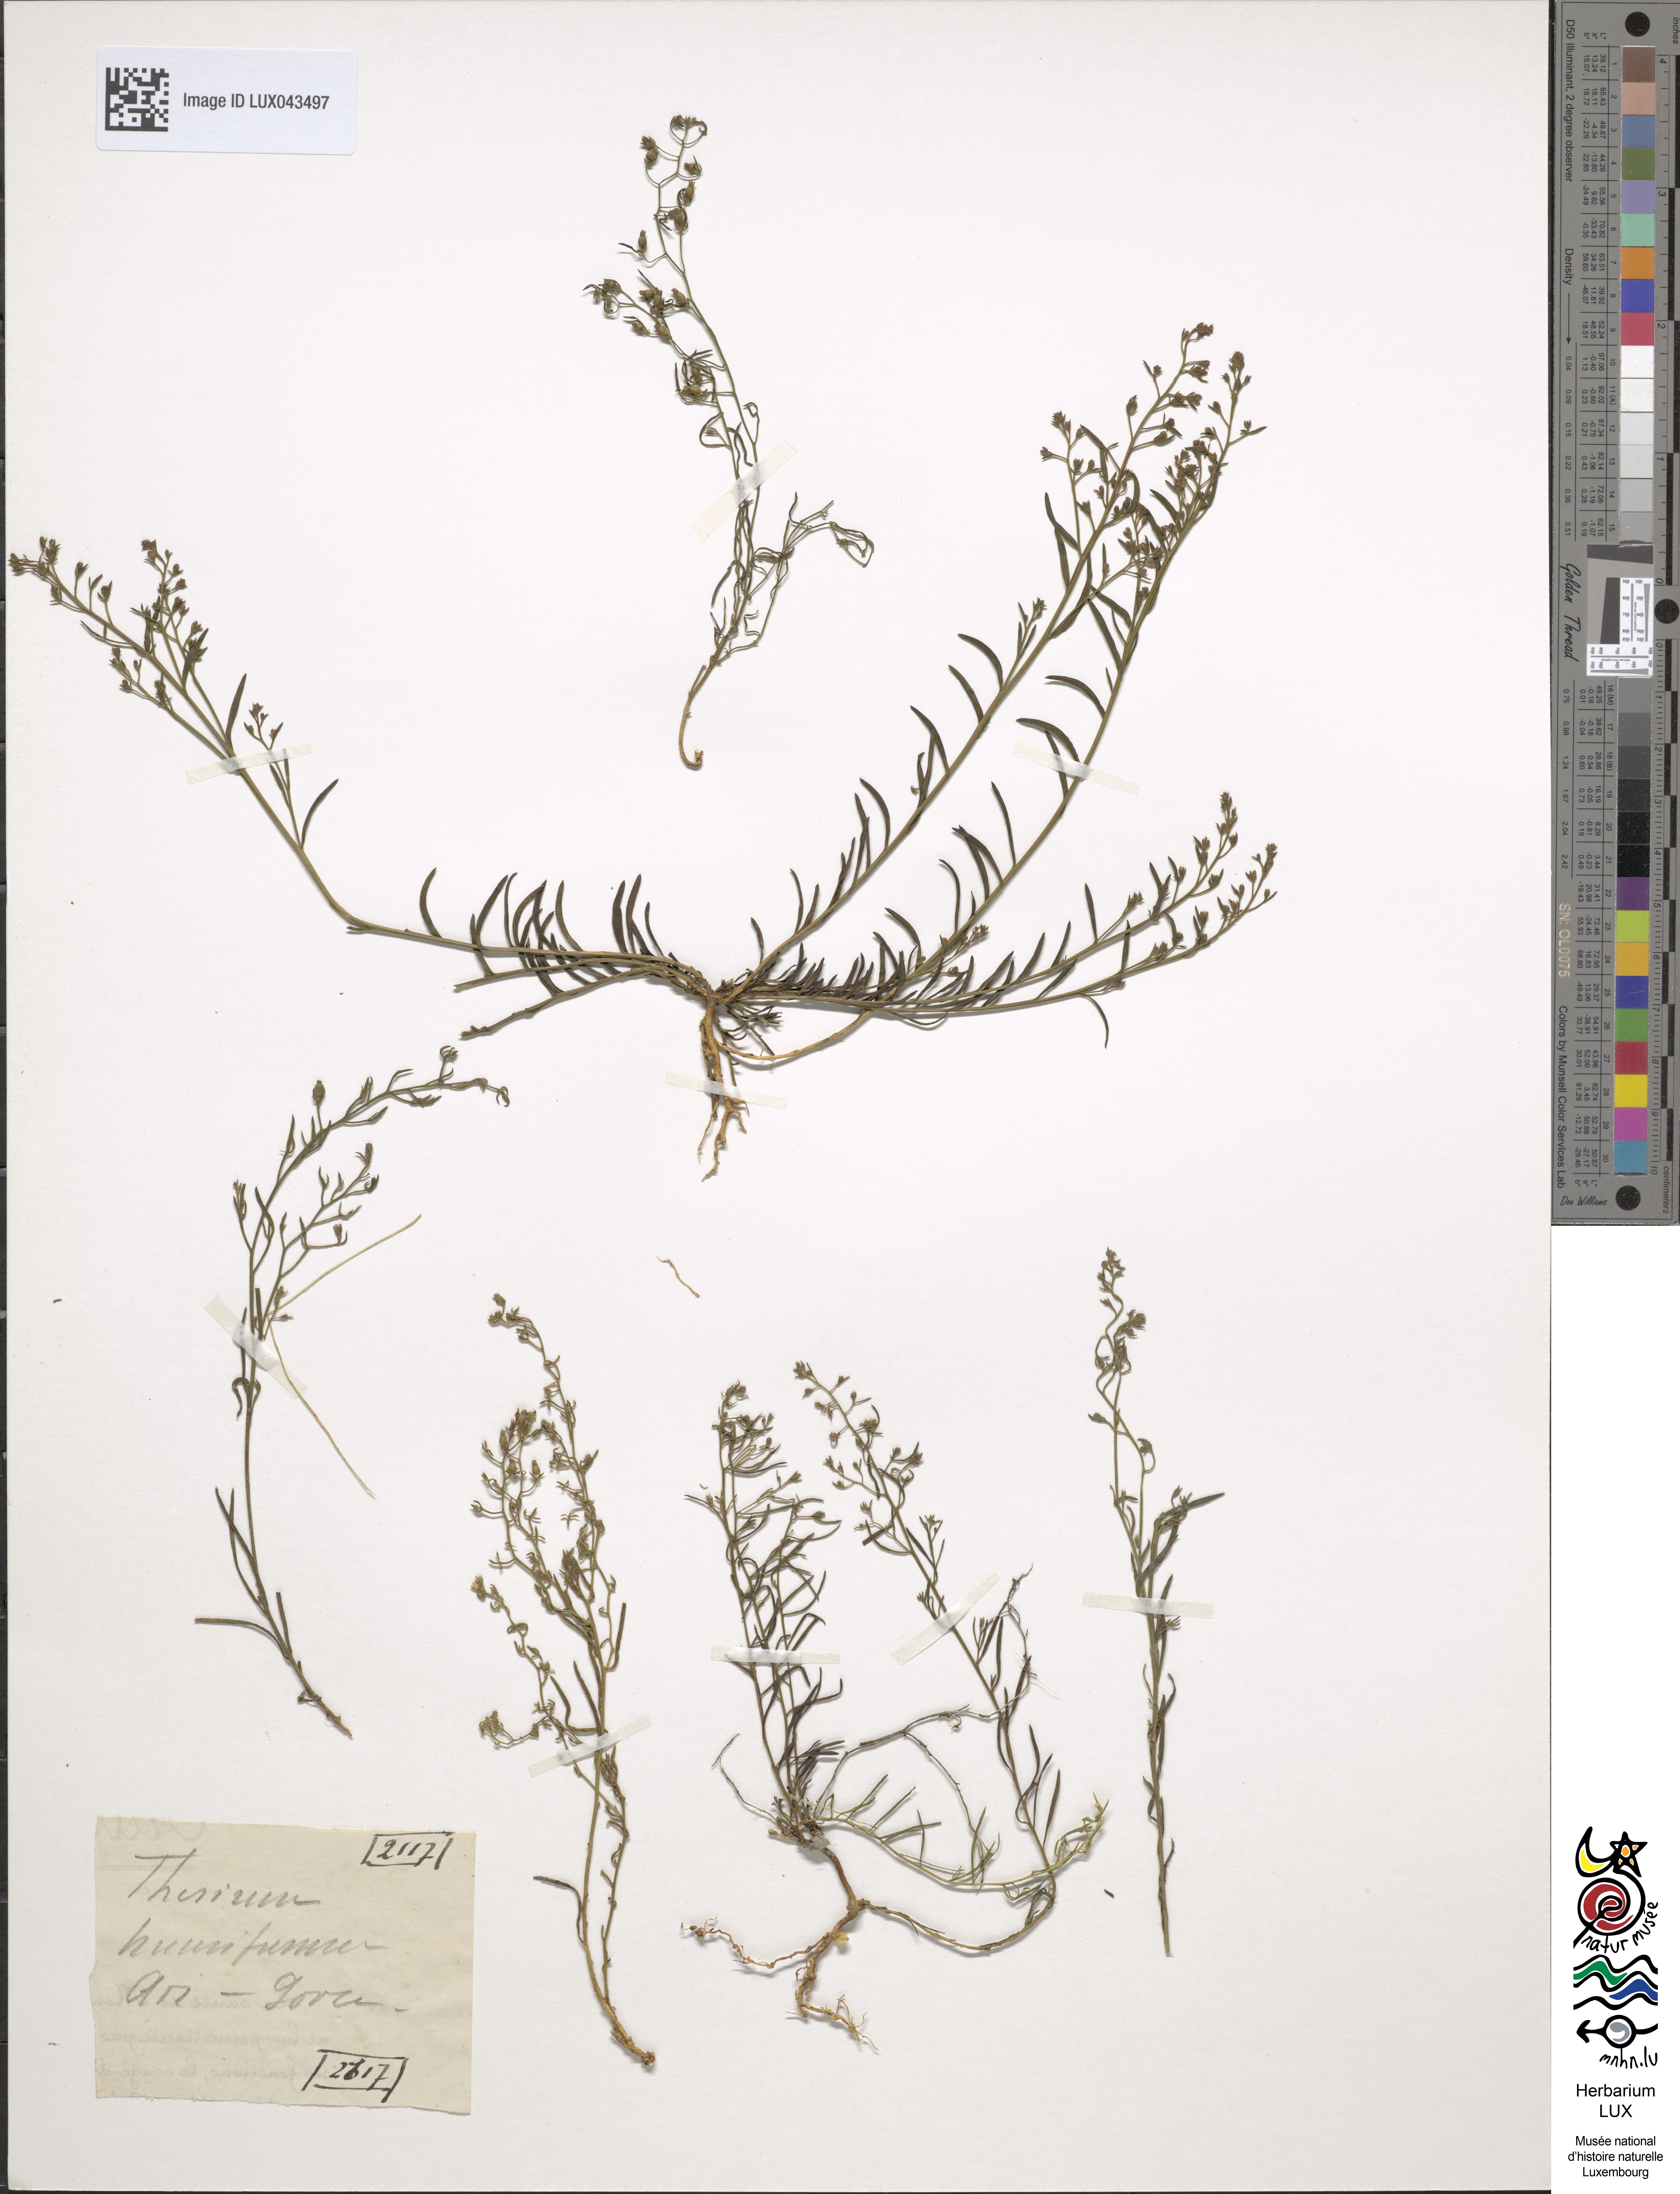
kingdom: Plantae
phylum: Tracheophyta
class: Magnoliopsida
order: Santalales
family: Thesiaceae
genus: Thesium
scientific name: Thesium humifusum
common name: Bastard-toadflax
